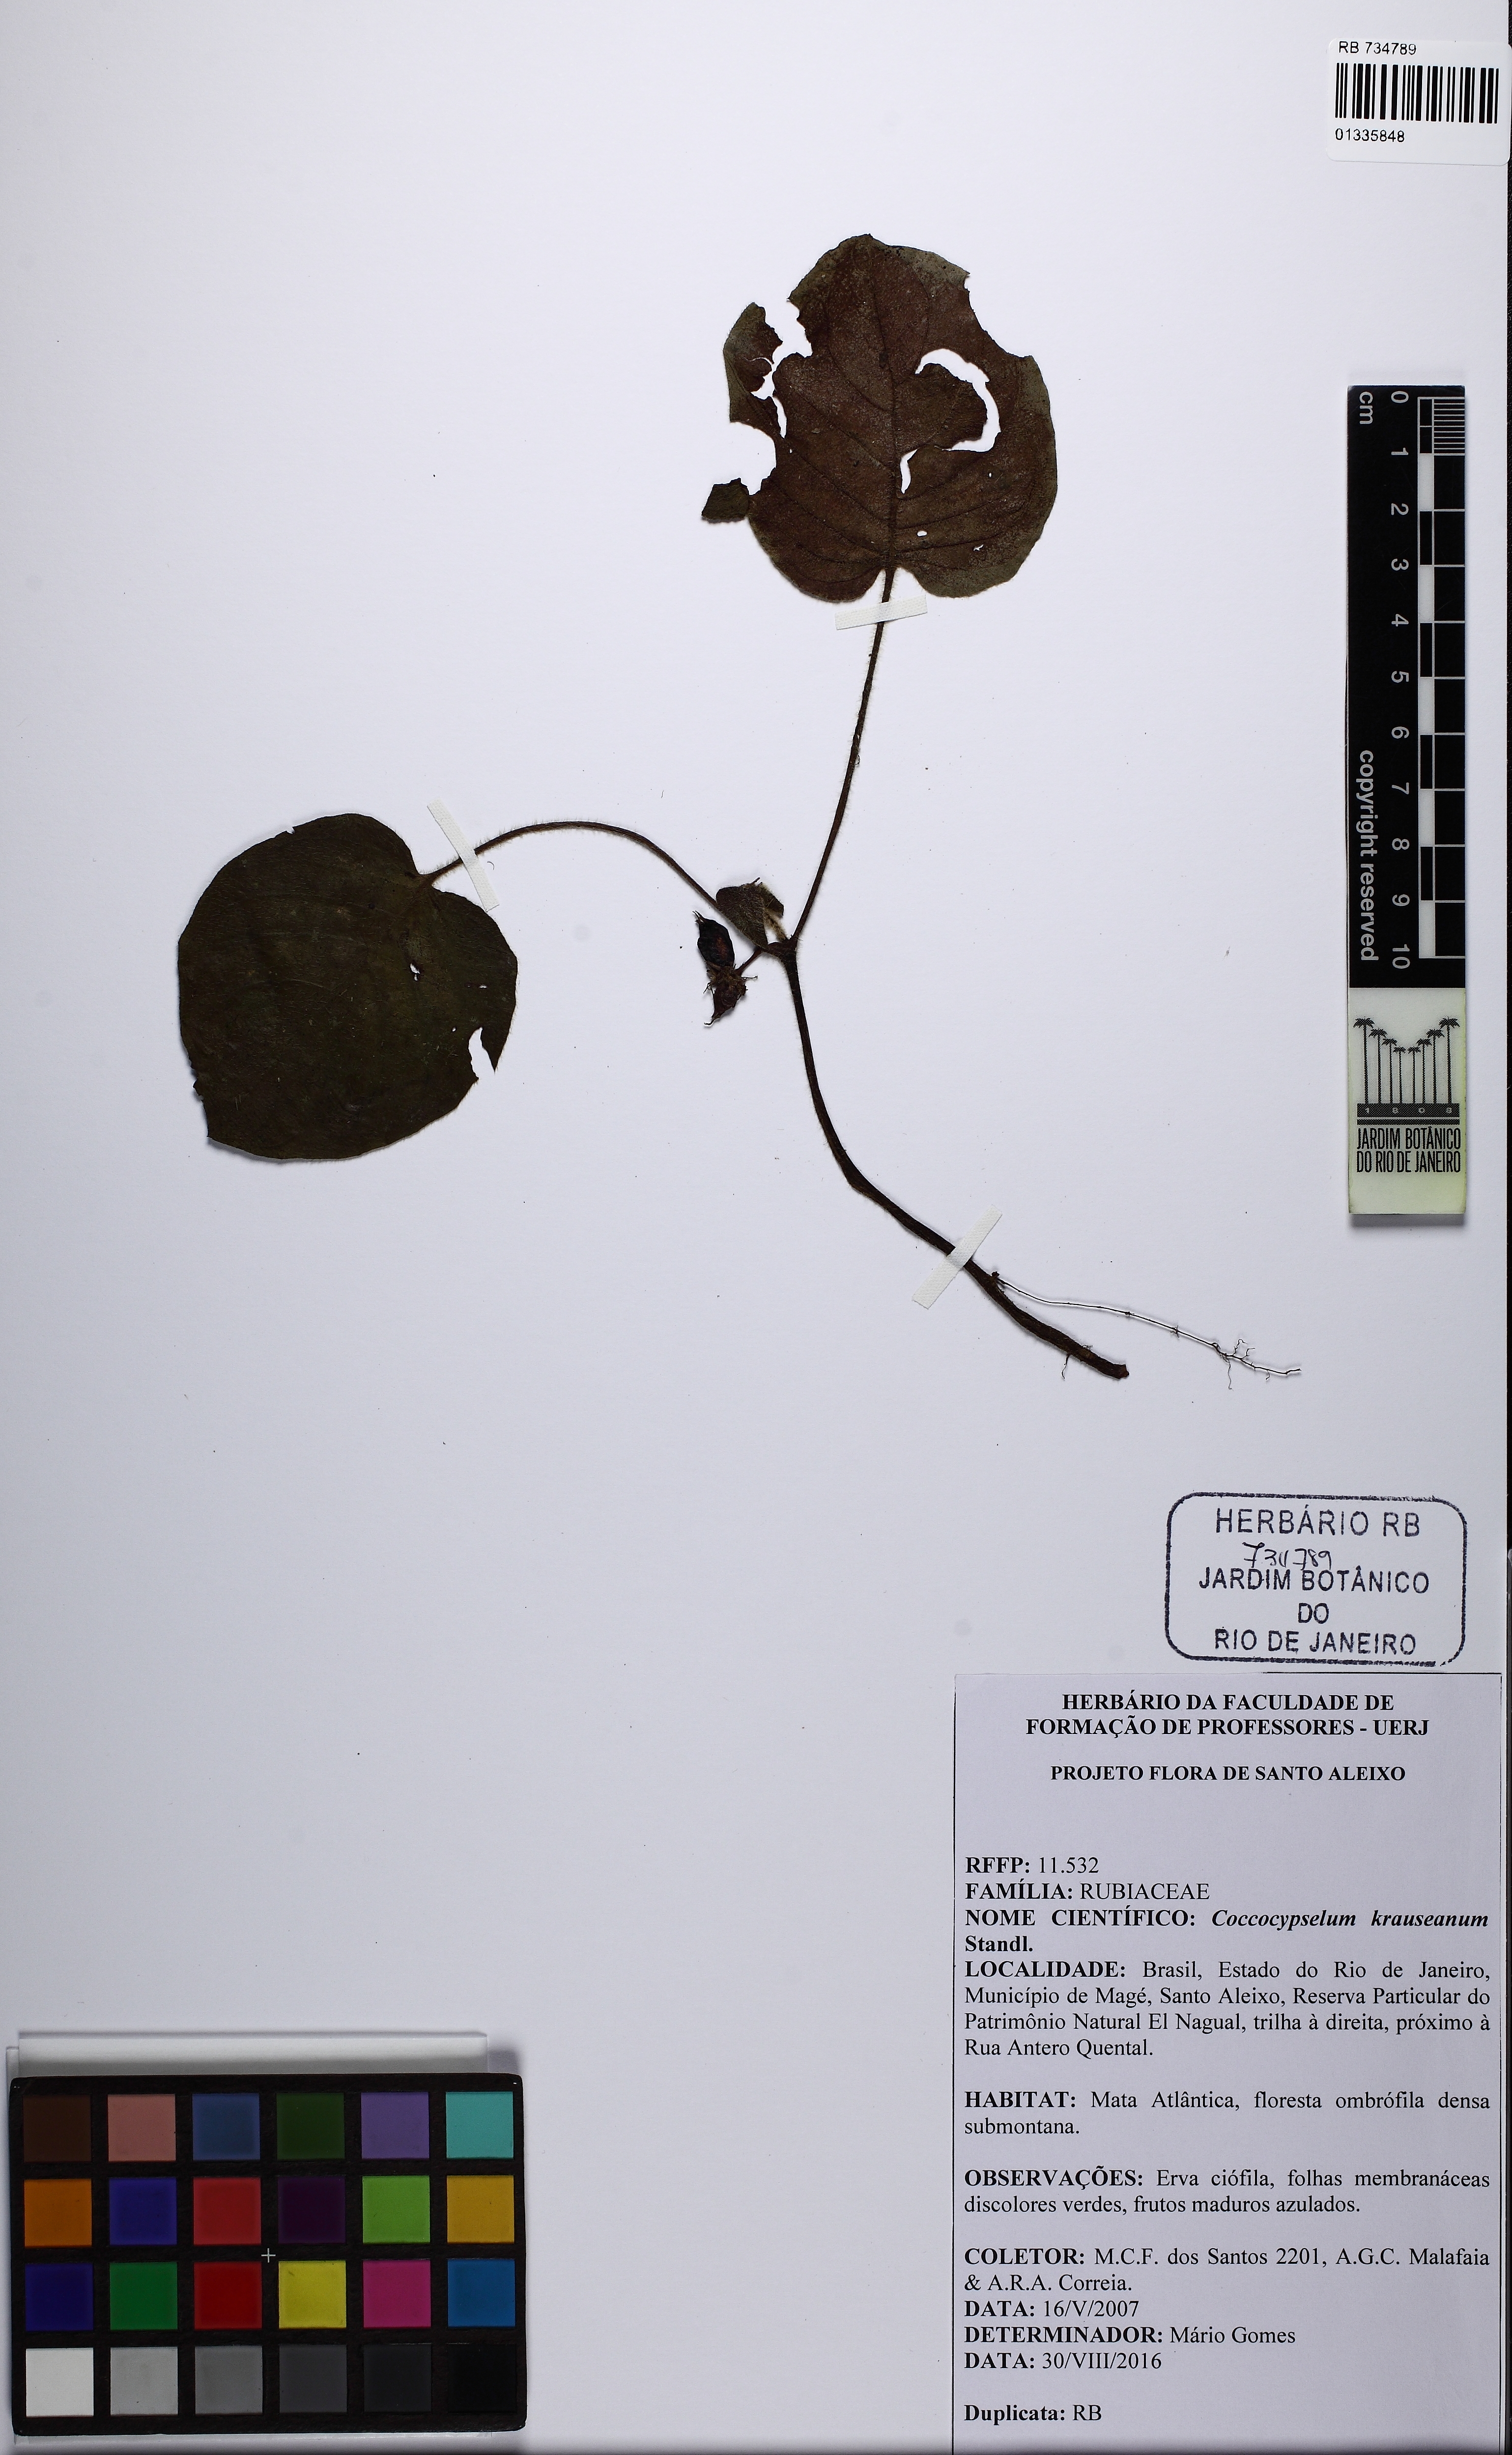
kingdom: Plantae
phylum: Tracheophyta
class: Magnoliopsida
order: Gentianales
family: Rubiaceae
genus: Coccocypselum
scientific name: Coccocypselum geophiloides
